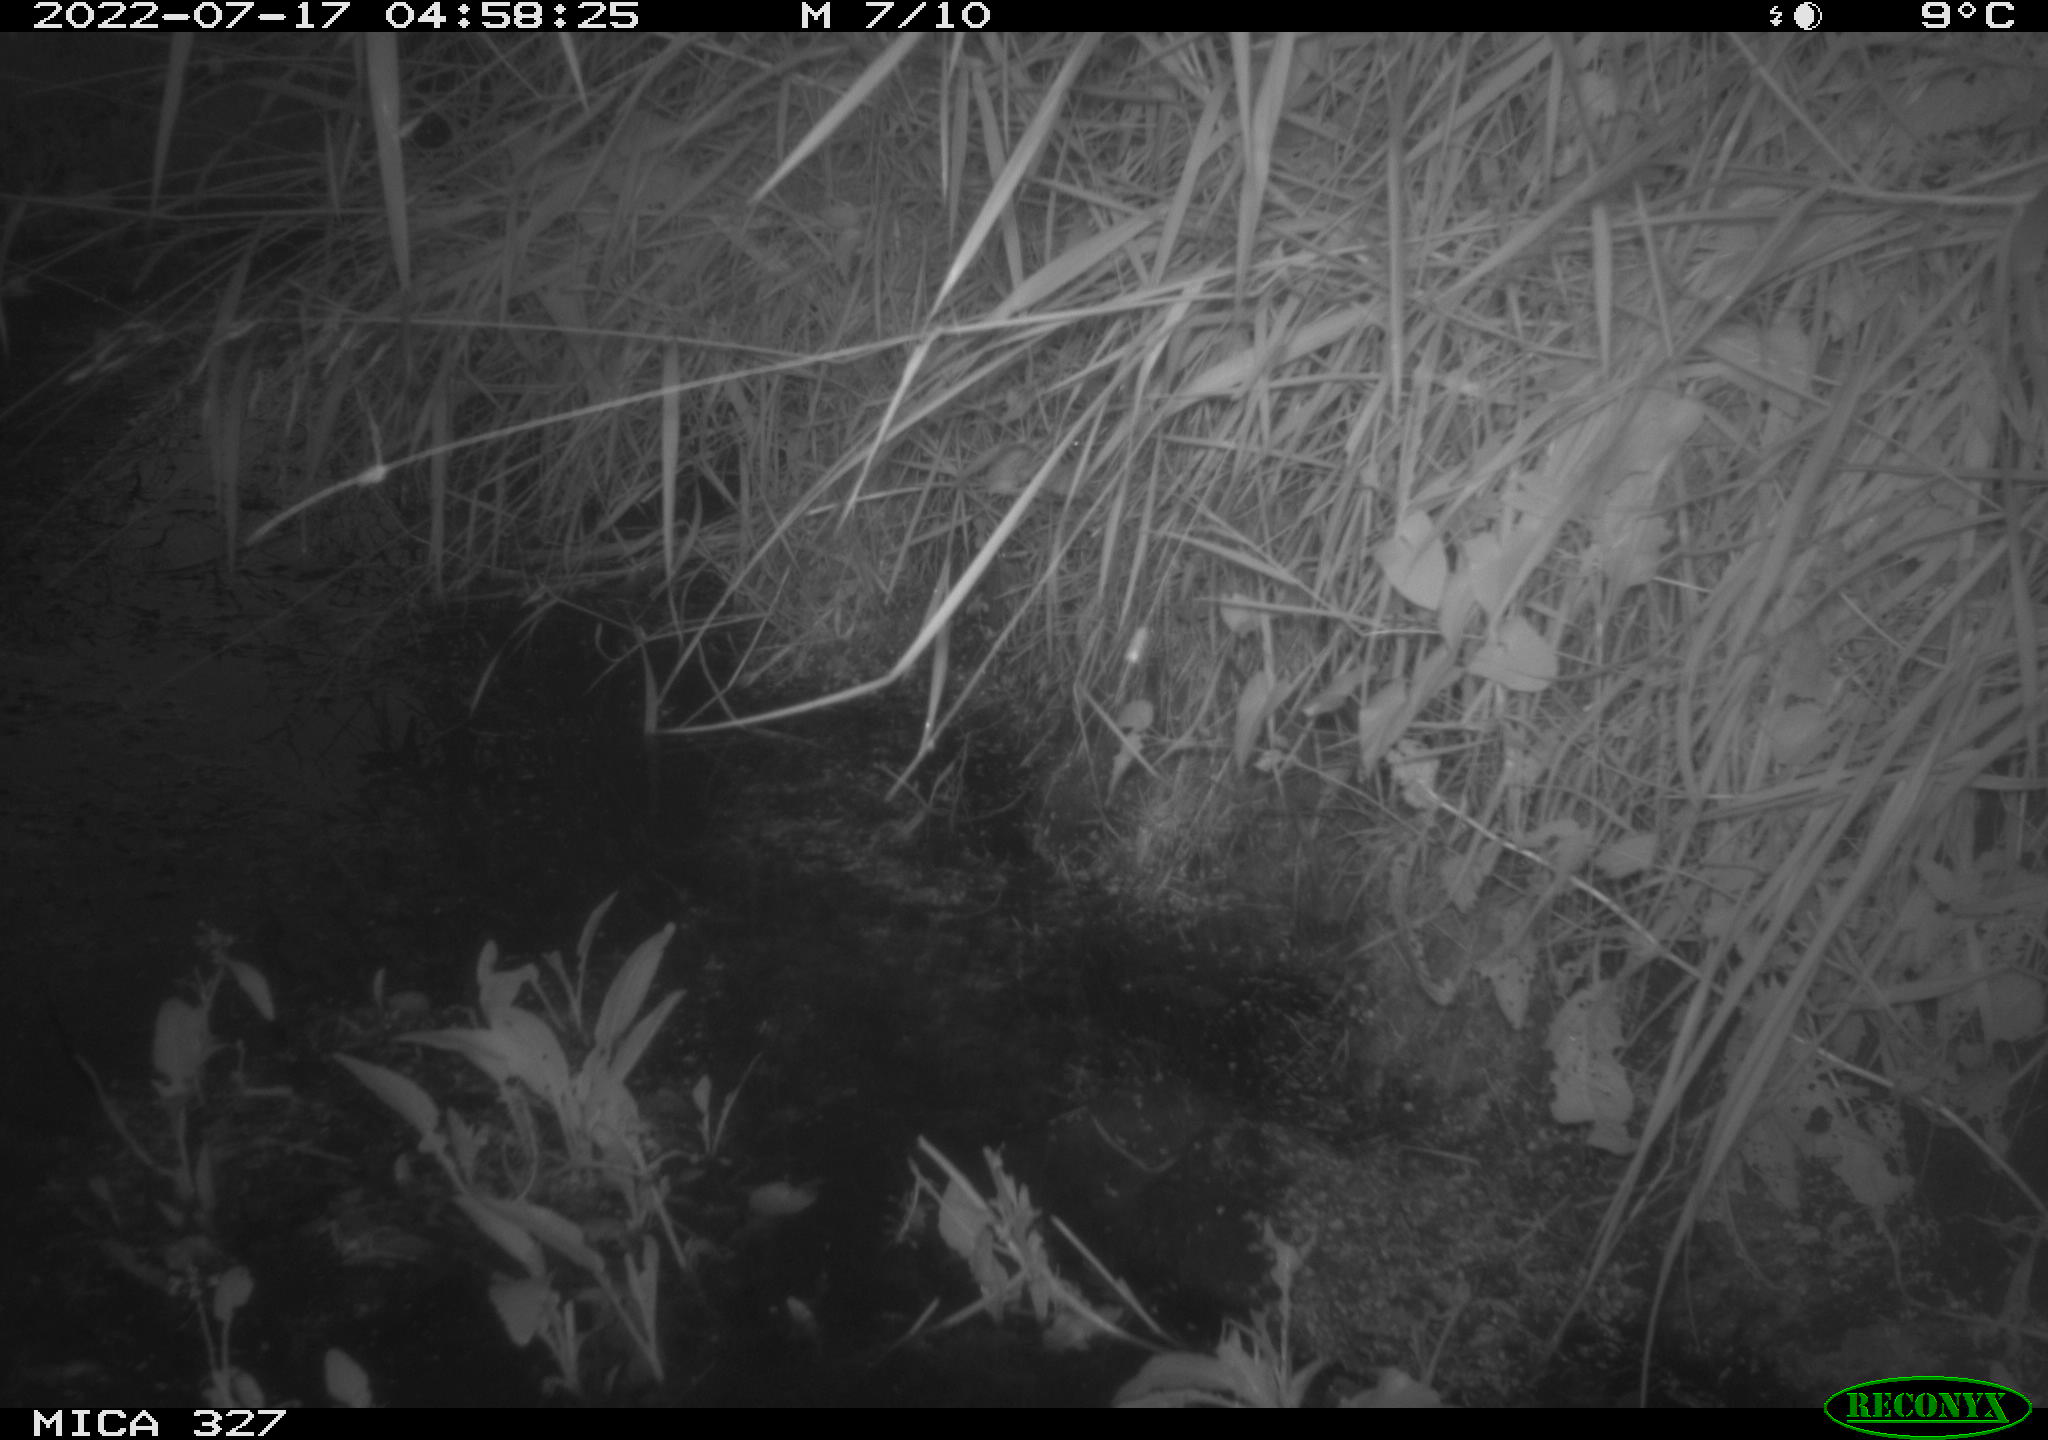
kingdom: Animalia
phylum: Chordata
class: Mammalia
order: Rodentia
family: Cricetidae
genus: Ondatra
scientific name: Ondatra zibethicus
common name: Muskrat
